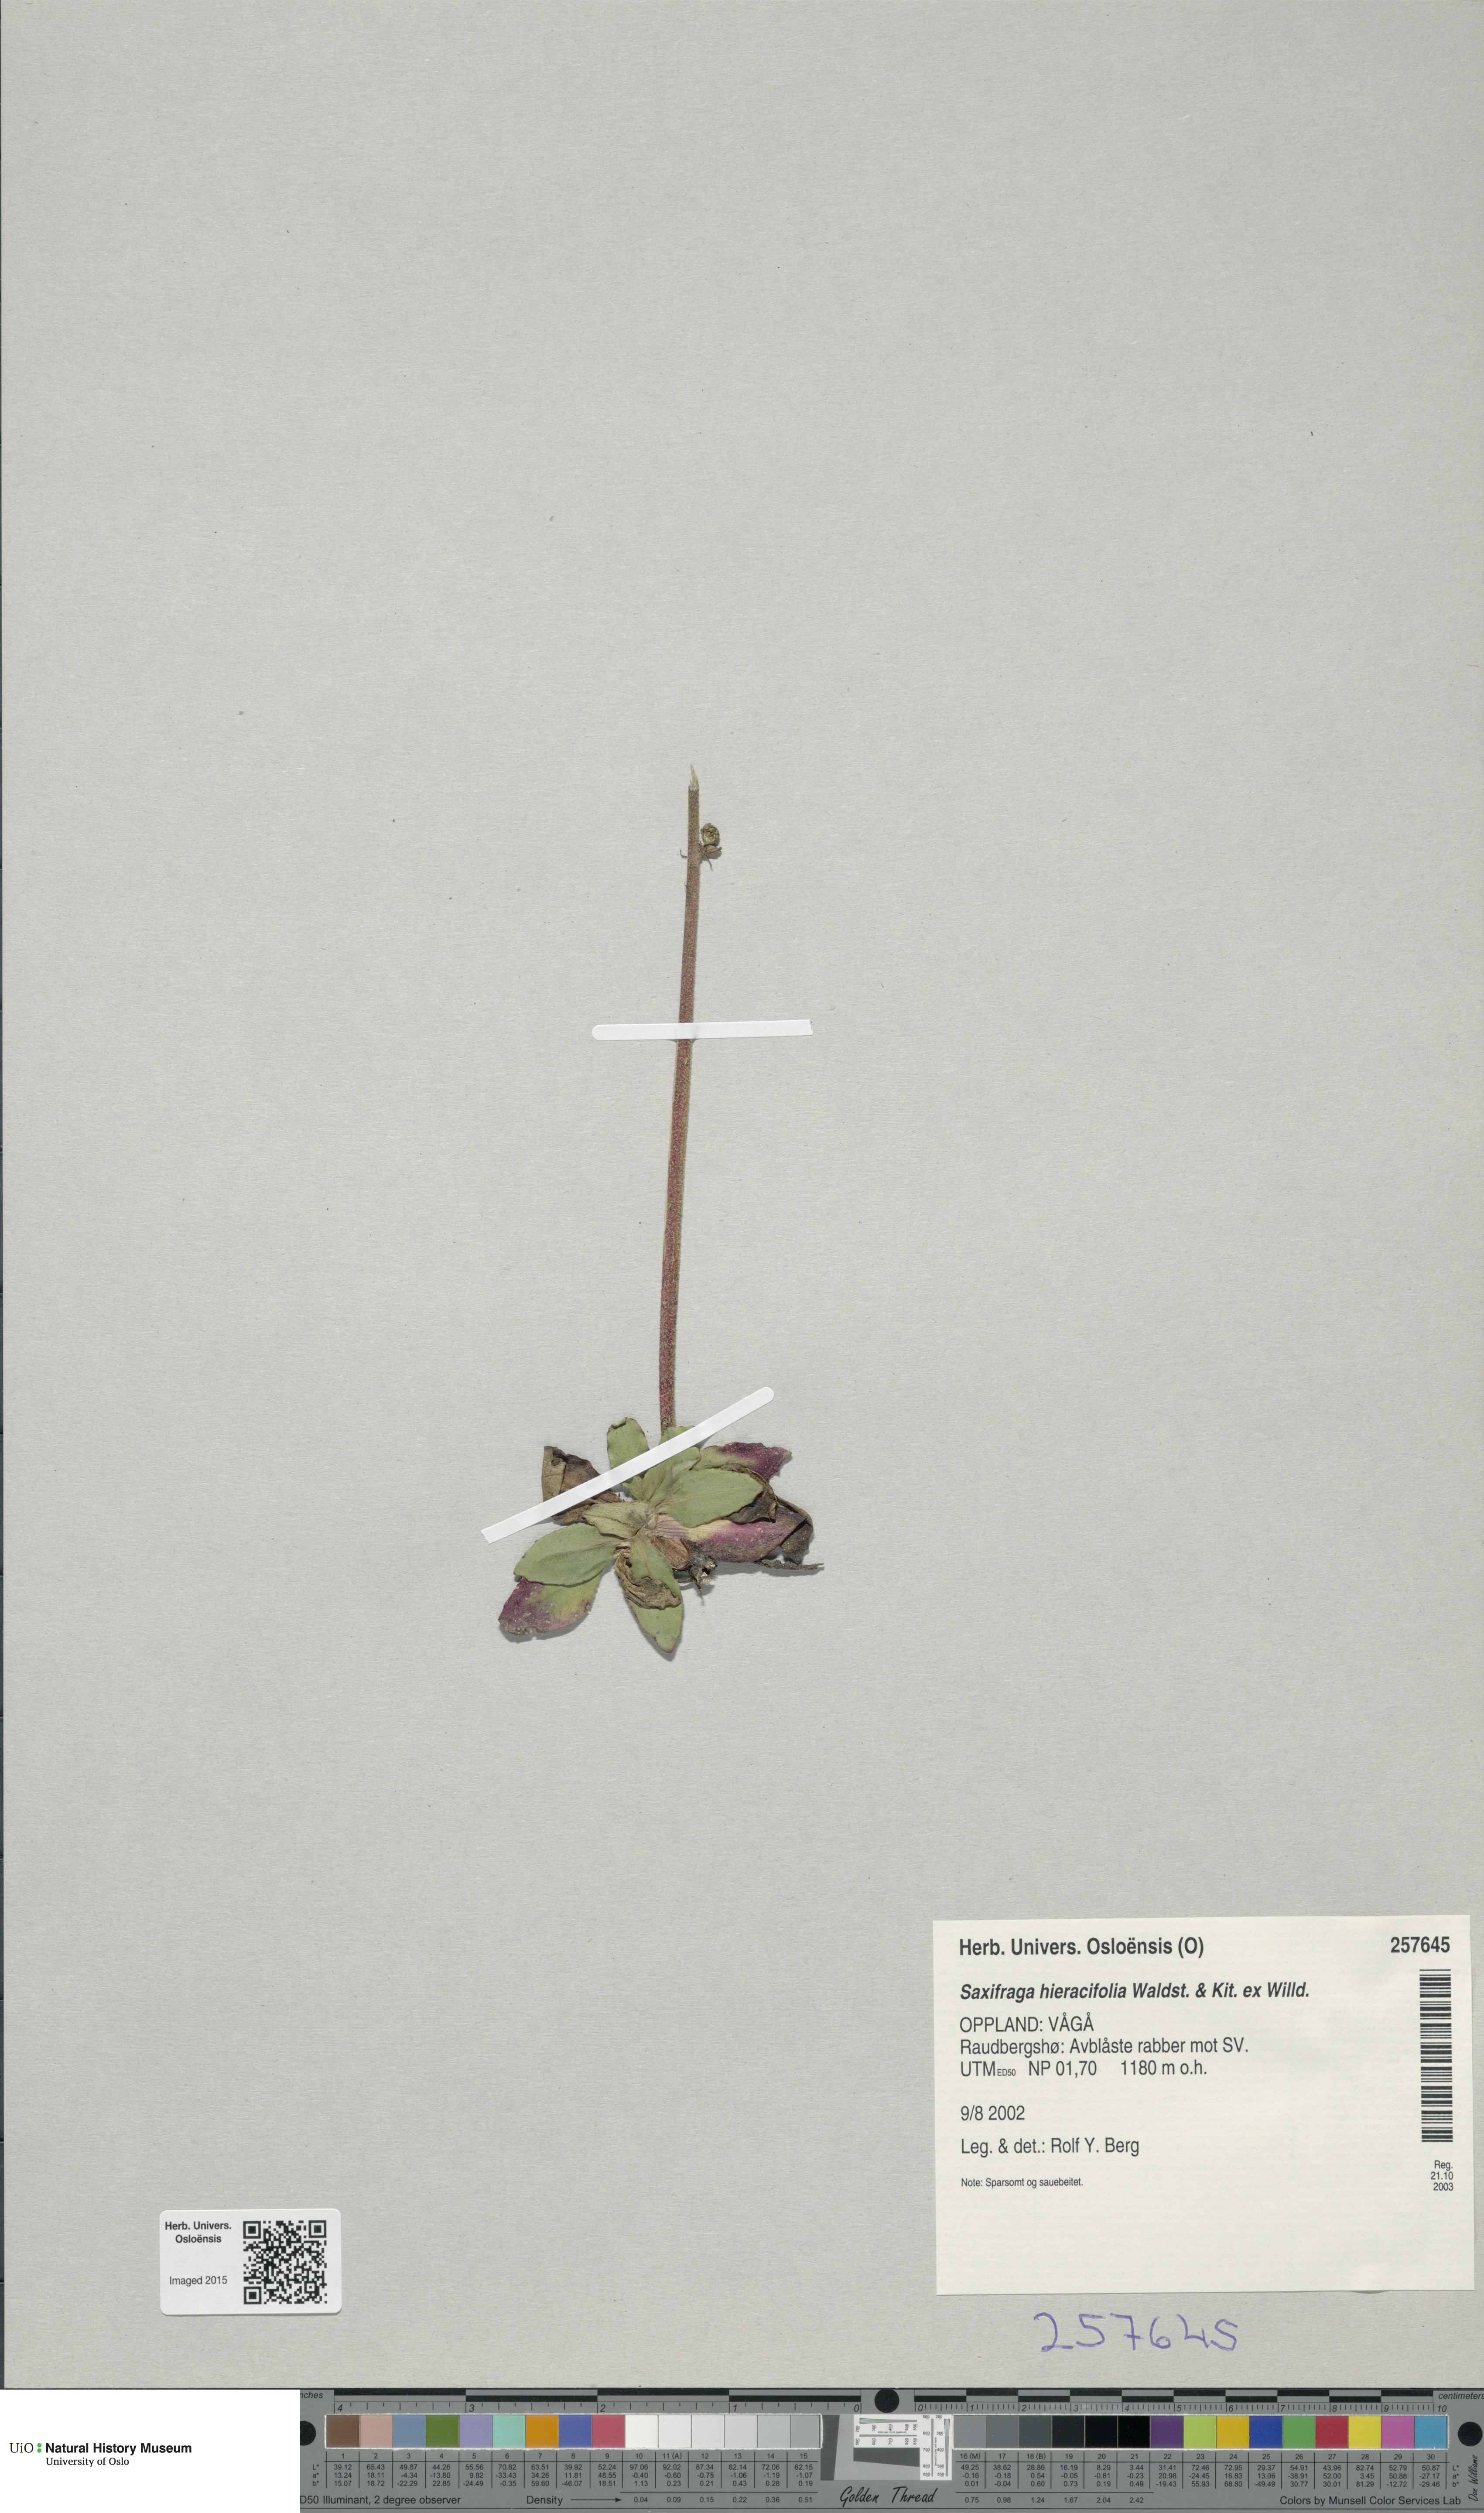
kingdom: Plantae
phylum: Tracheophyta
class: Magnoliopsida
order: Saxifragales
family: Saxifragaceae
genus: Micranthes
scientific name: Micranthes hieraciifolia
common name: Hawkweed-leaved saxifrage
